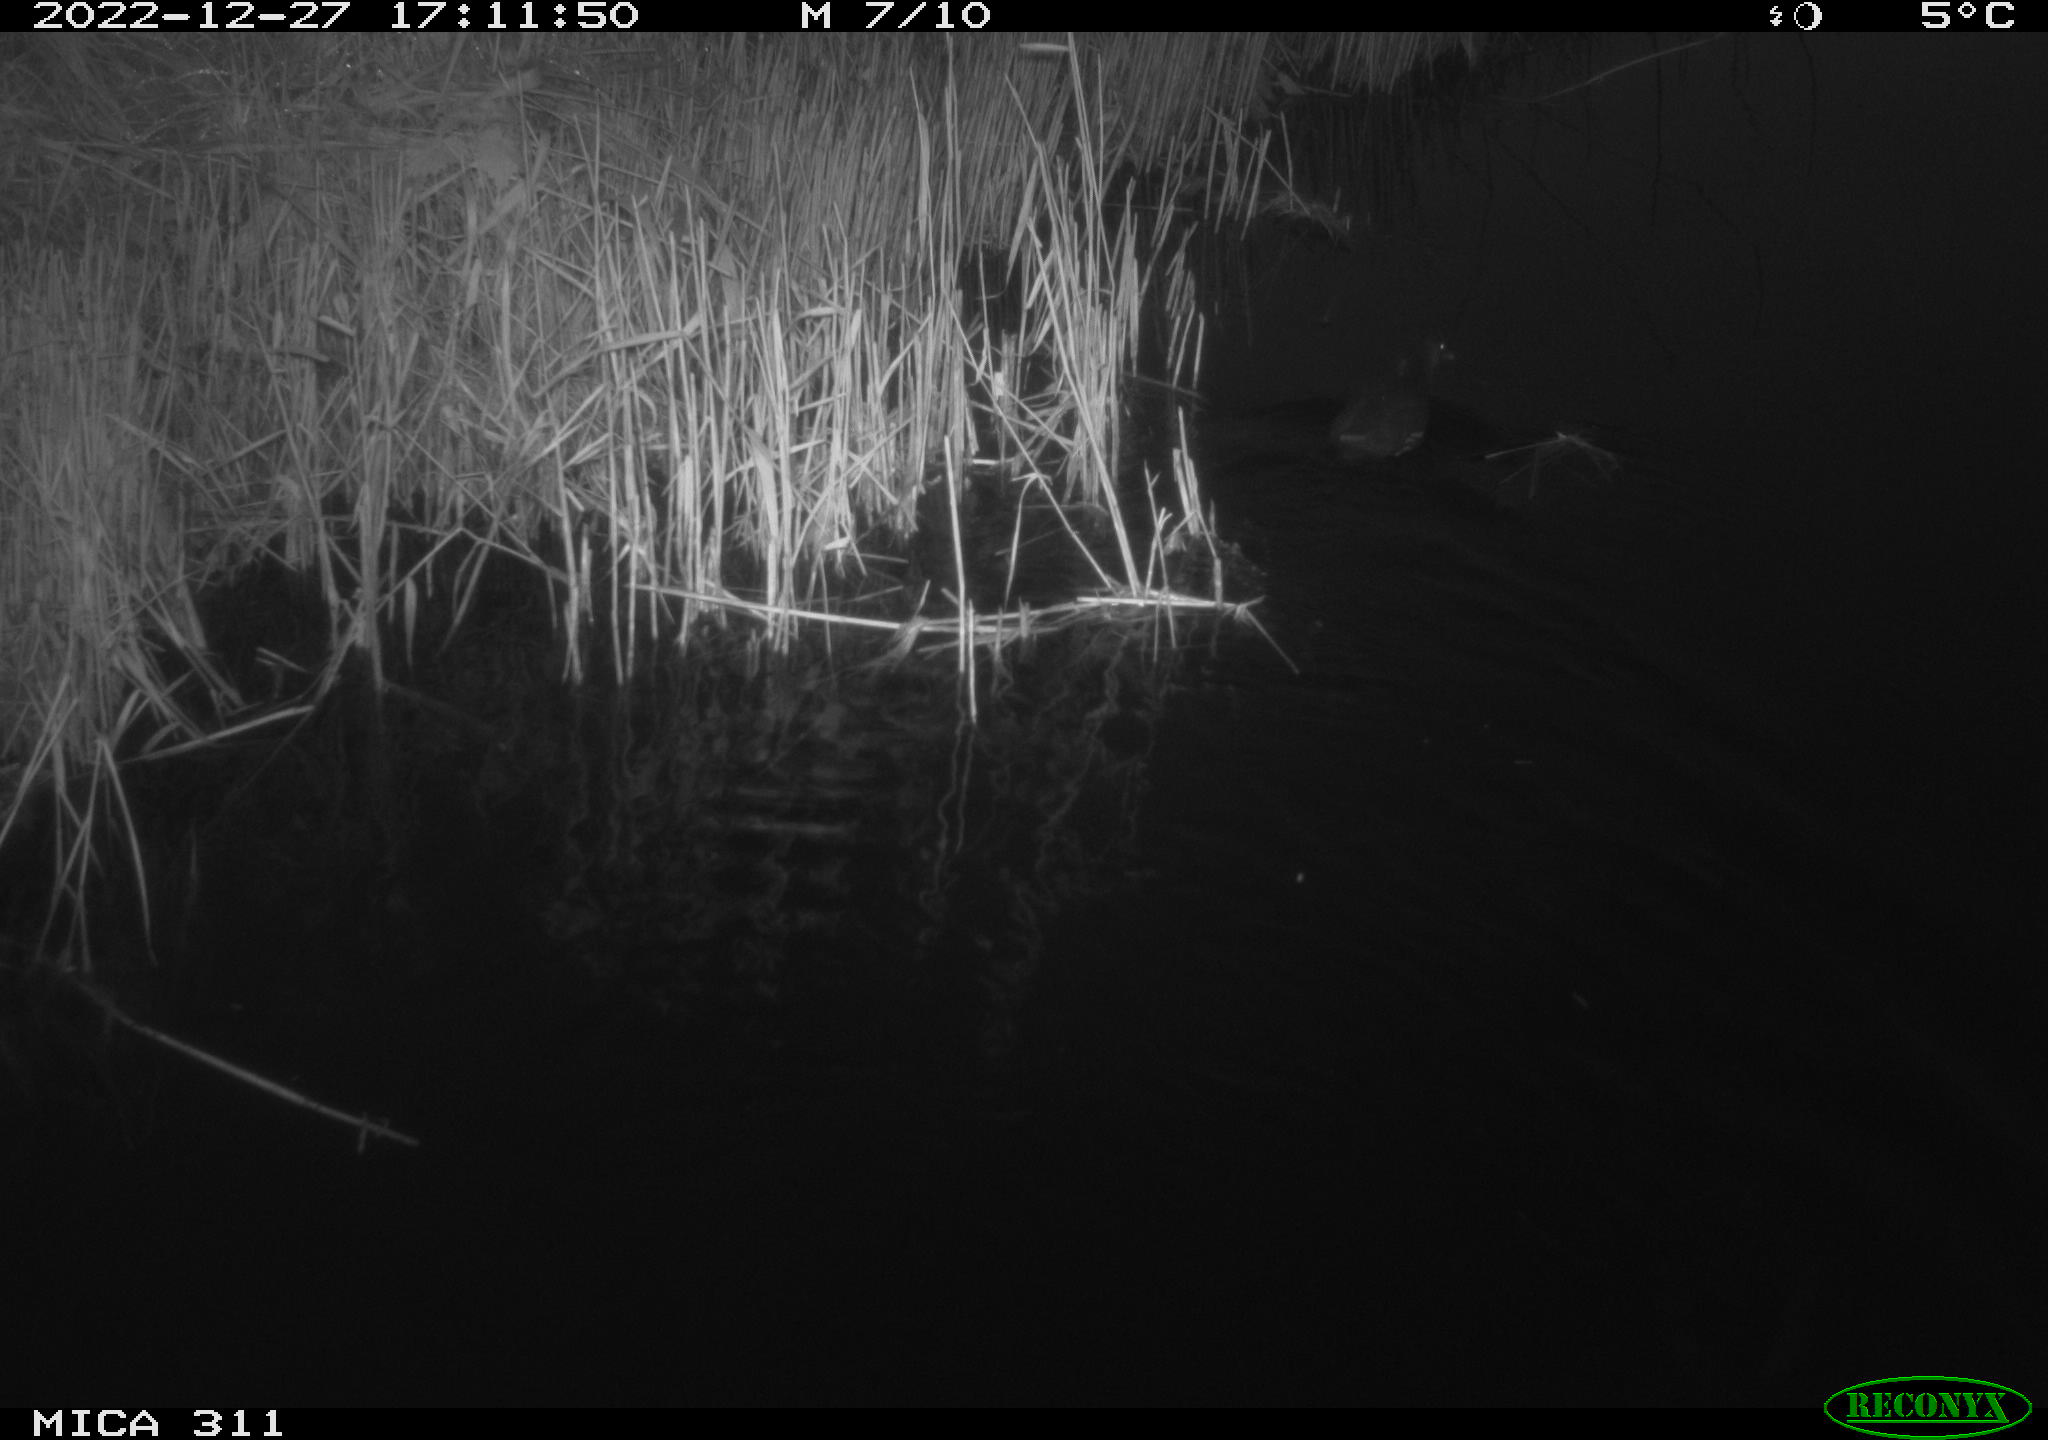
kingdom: Animalia
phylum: Chordata
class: Aves
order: Gruiformes
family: Rallidae
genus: Fulica
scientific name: Fulica atra
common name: Eurasian coot
